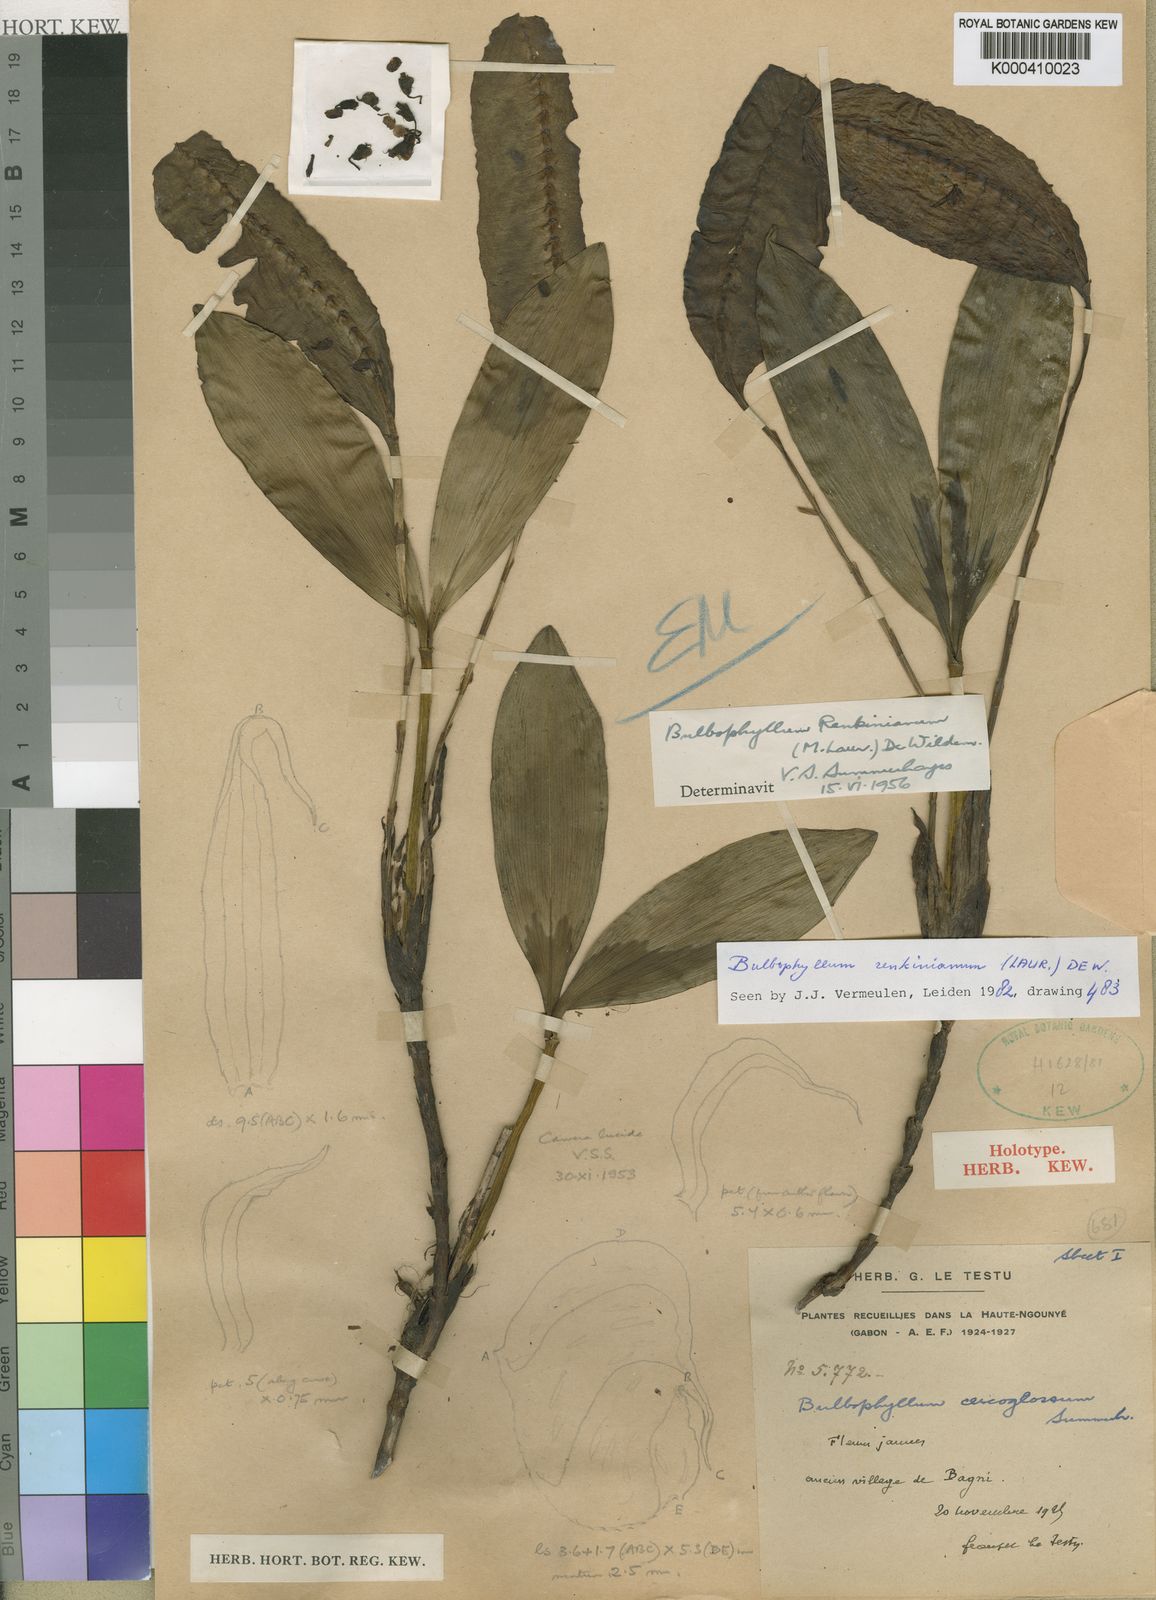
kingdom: Plantae
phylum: Tracheophyta
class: Liliopsida
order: Asparagales
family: Orchidaceae
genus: Bulbophyllum
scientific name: Bulbophyllum renkinianum
